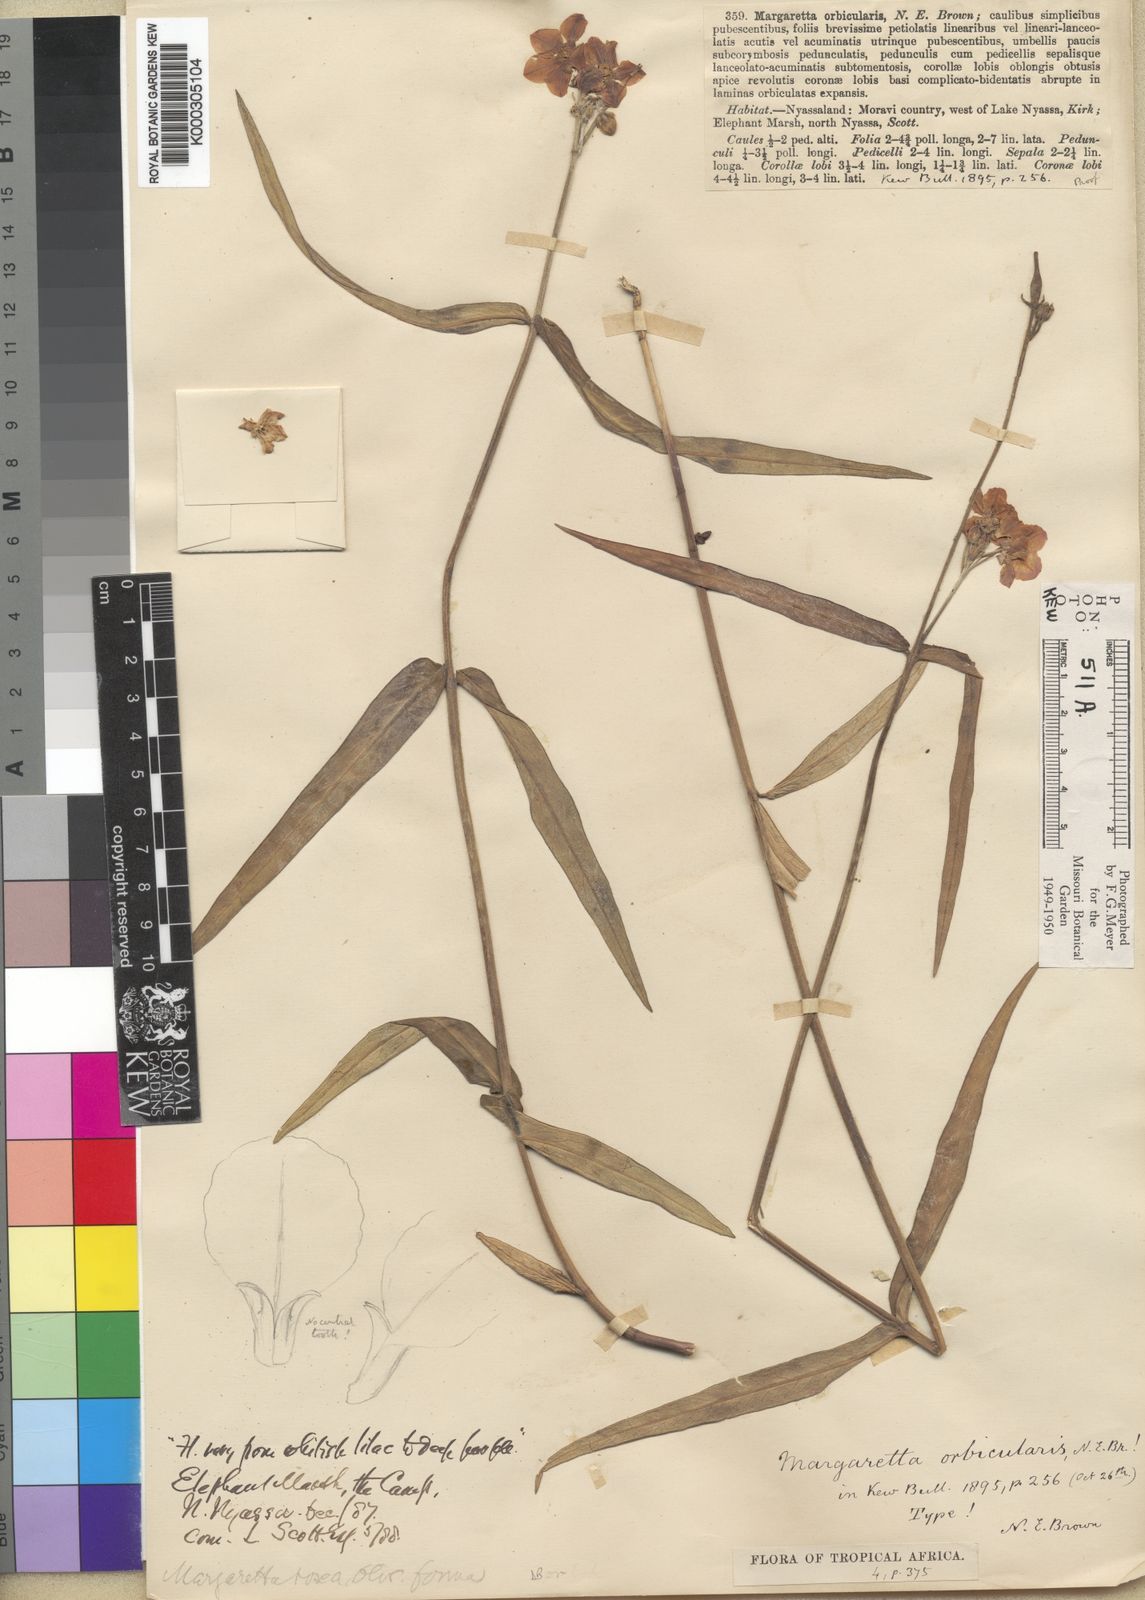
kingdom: Plantae
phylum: Tracheophyta
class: Magnoliopsida
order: Gentianales
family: Apocynaceae
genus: Margaretta
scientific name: Margaretta rosea
